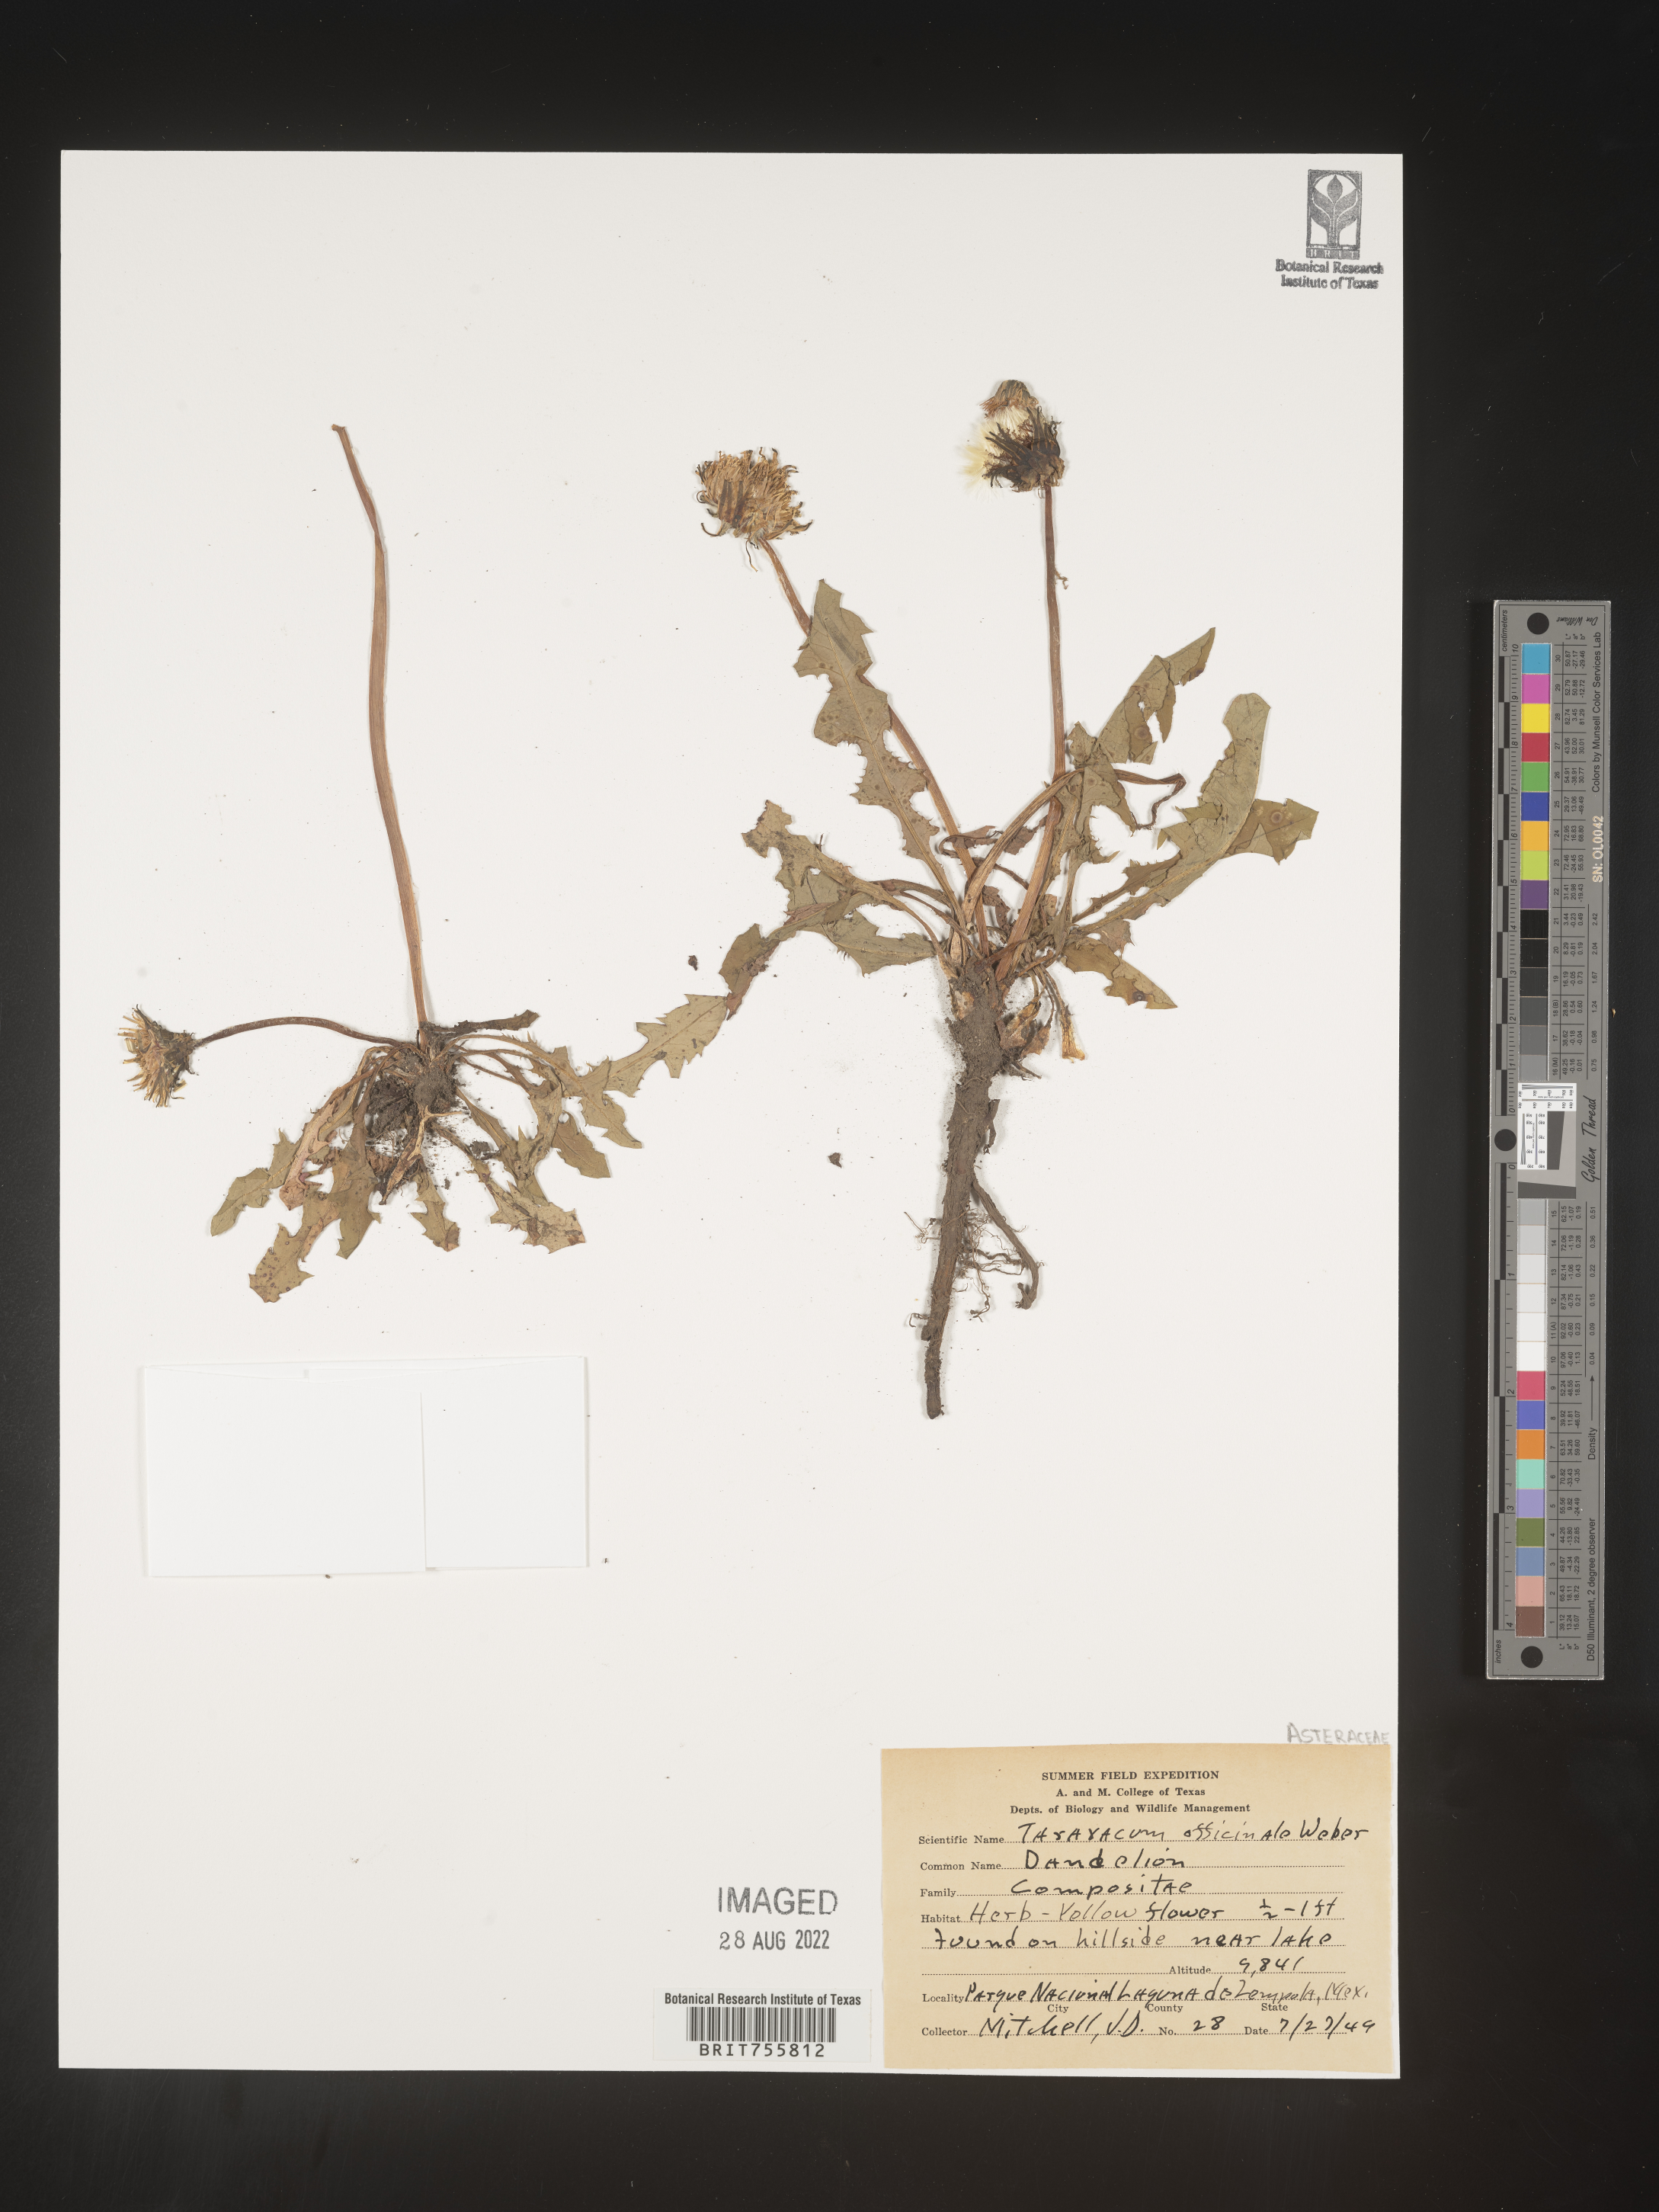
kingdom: Plantae
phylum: Tracheophyta
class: Magnoliopsida
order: Asterales
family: Asteraceae
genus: Taraxacum
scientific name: Taraxacum
